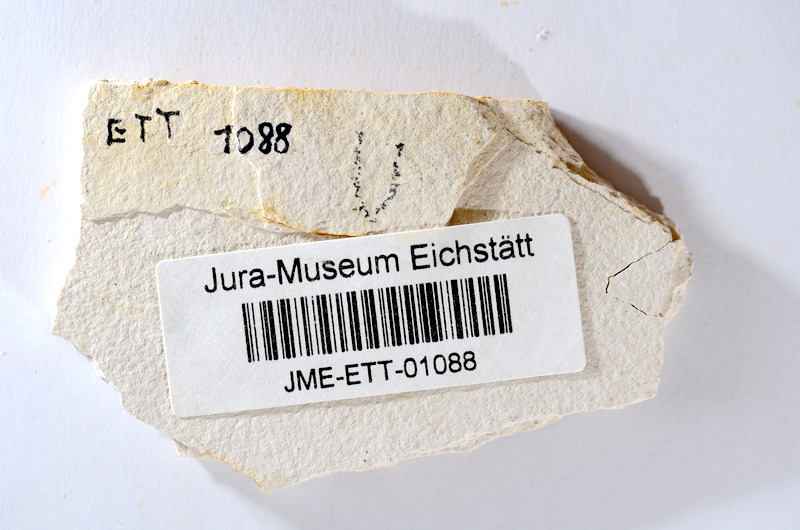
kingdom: Animalia
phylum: Chordata
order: Salmoniformes
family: Orthogonikleithridae
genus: Orthogonikleithrus
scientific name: Orthogonikleithrus hoelli
